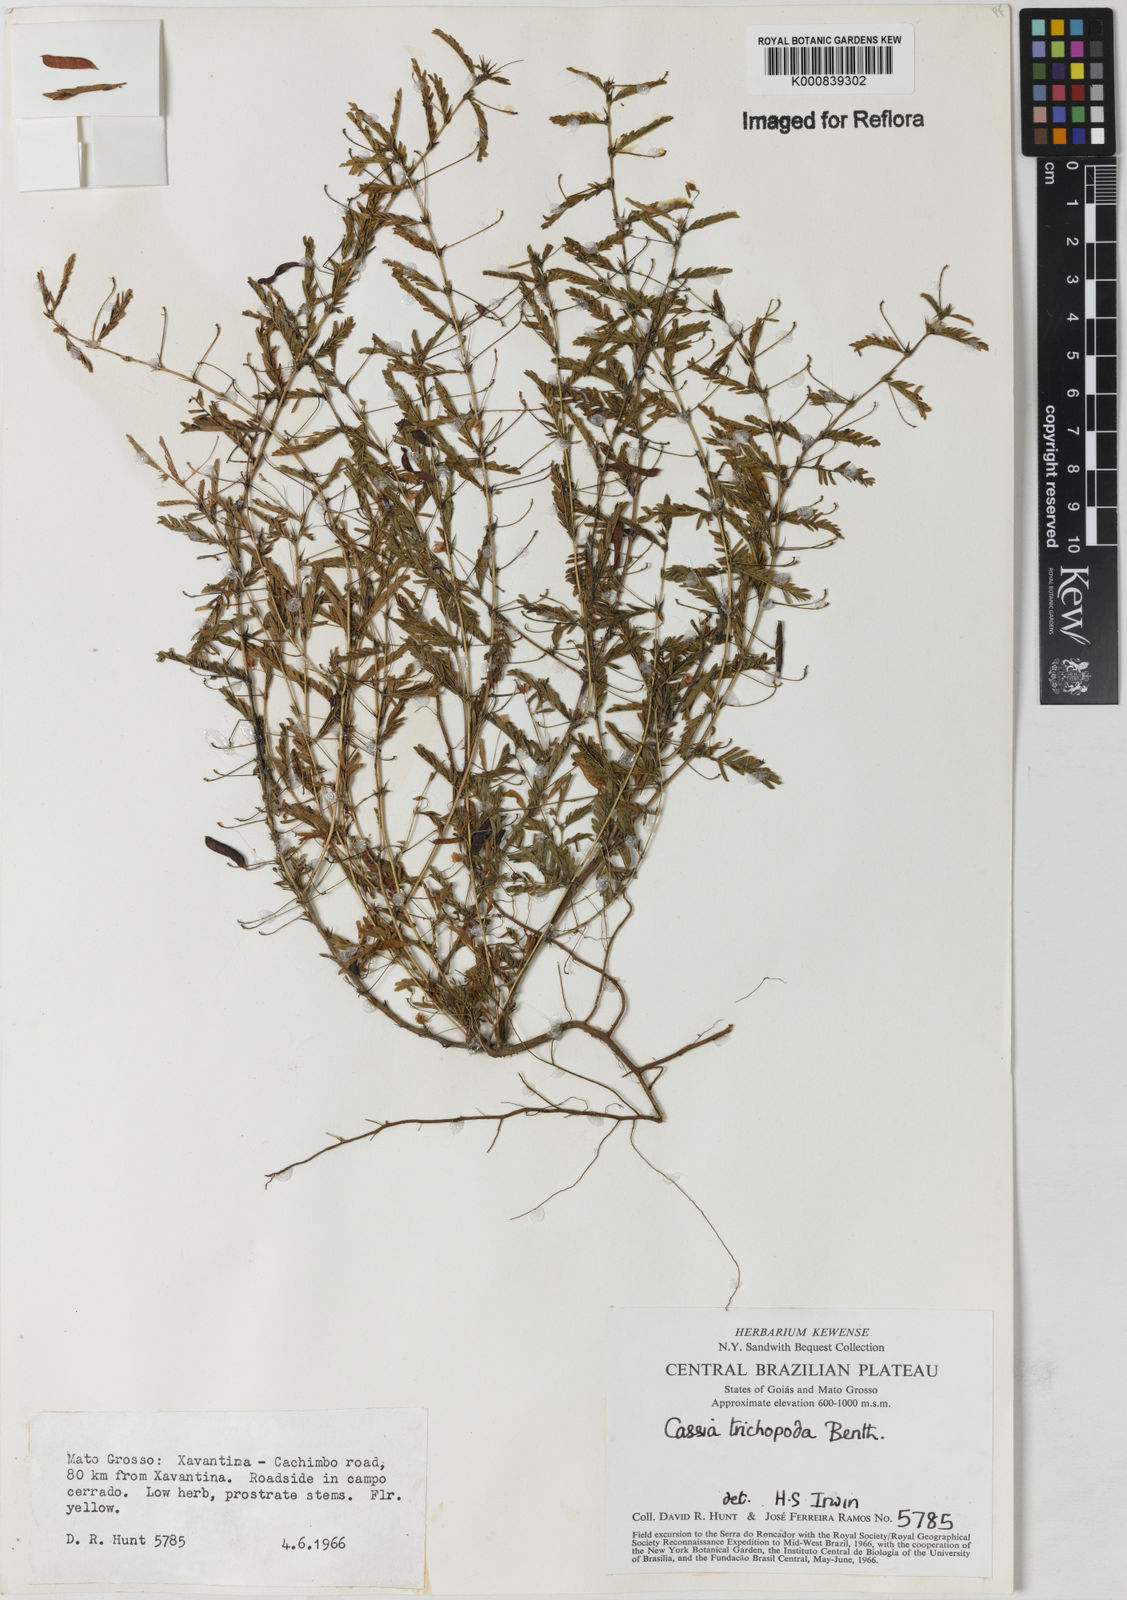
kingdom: Plantae
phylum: Tracheophyta
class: Magnoliopsida
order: Fabales
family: Fabaceae
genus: Chamaecrista
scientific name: Chamaecrista trichopoda
